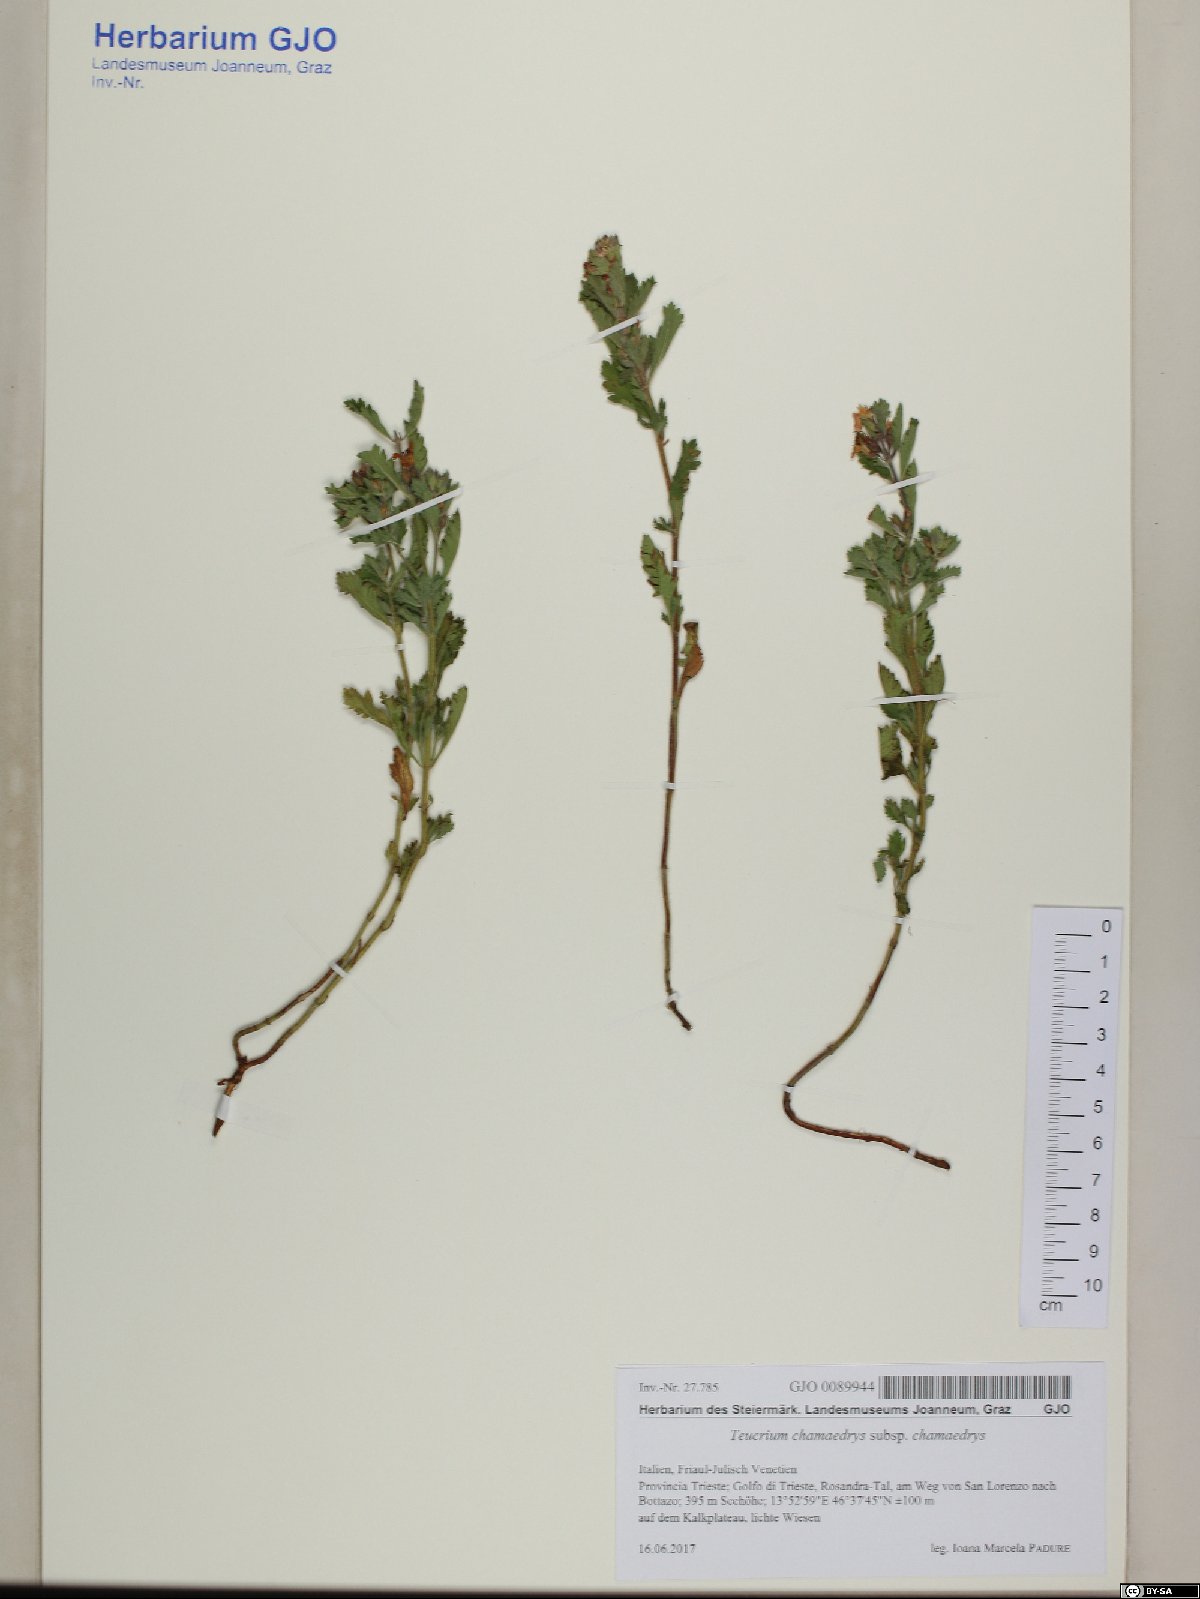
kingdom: Plantae
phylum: Tracheophyta
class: Magnoliopsida
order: Lamiales
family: Lamiaceae
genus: Teucrium
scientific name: Teucrium chamaedrys
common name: Wall germander
